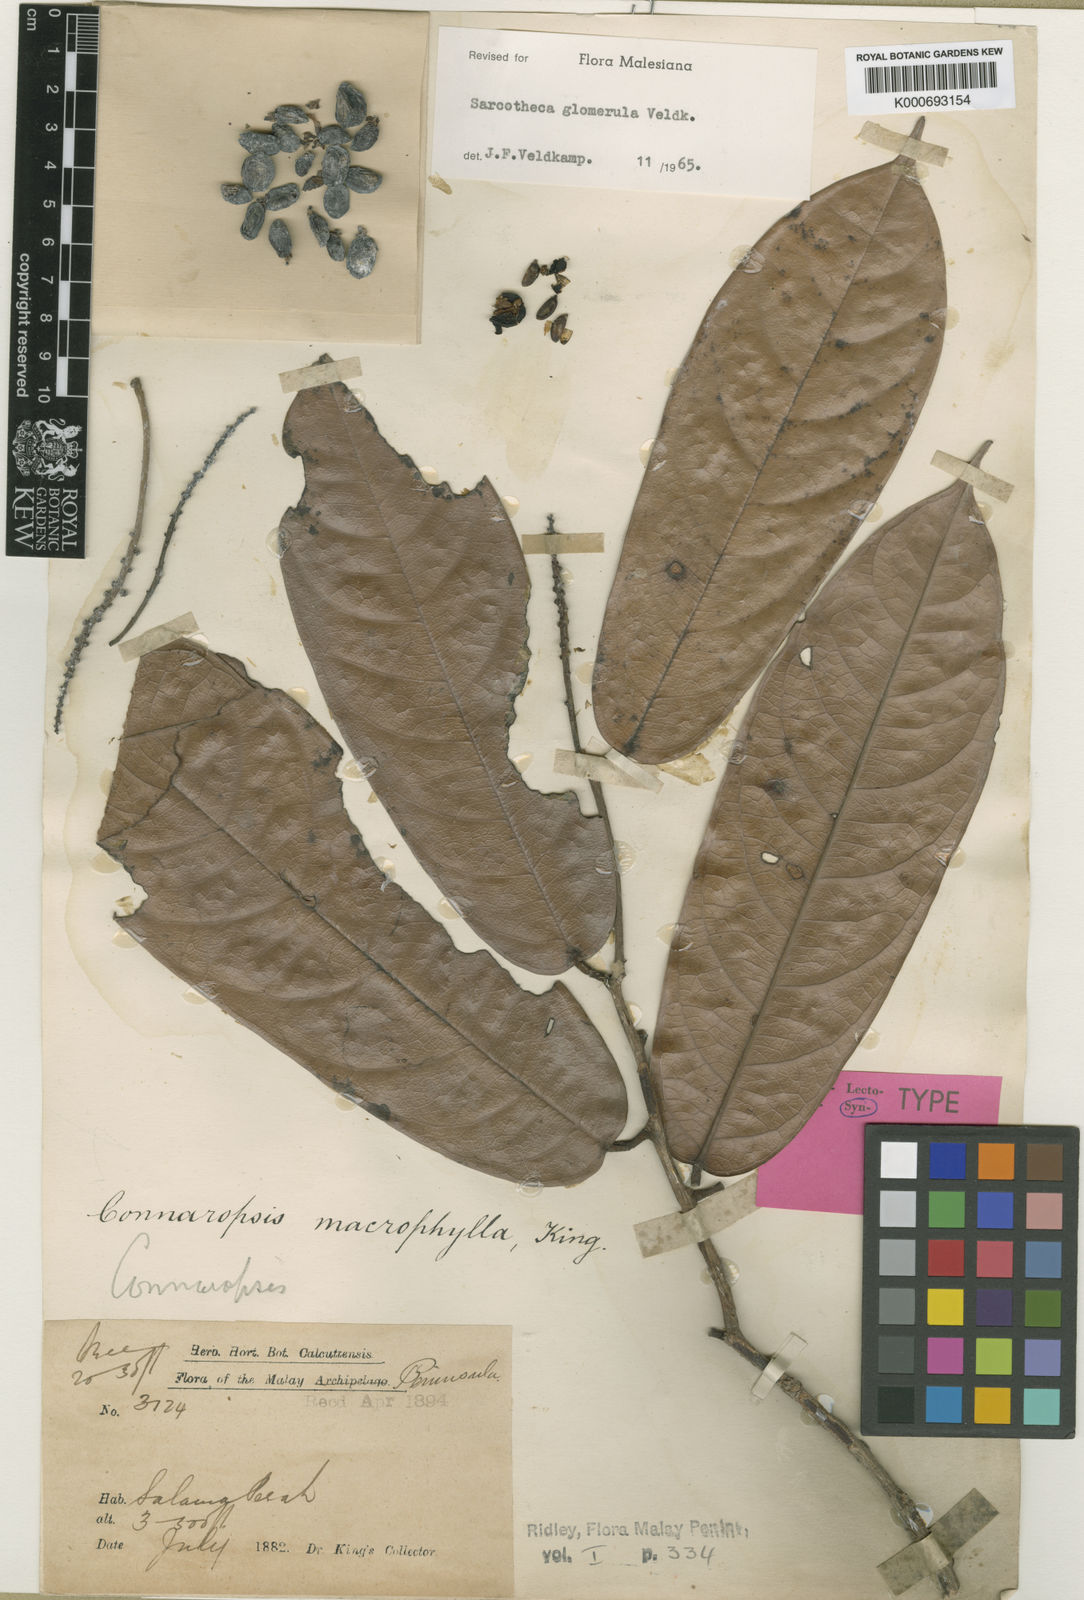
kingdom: Plantae
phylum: Tracheophyta
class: Magnoliopsida
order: Oxalidales
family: Oxalidaceae
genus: Sarcotheca
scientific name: Sarcotheca glomerula
